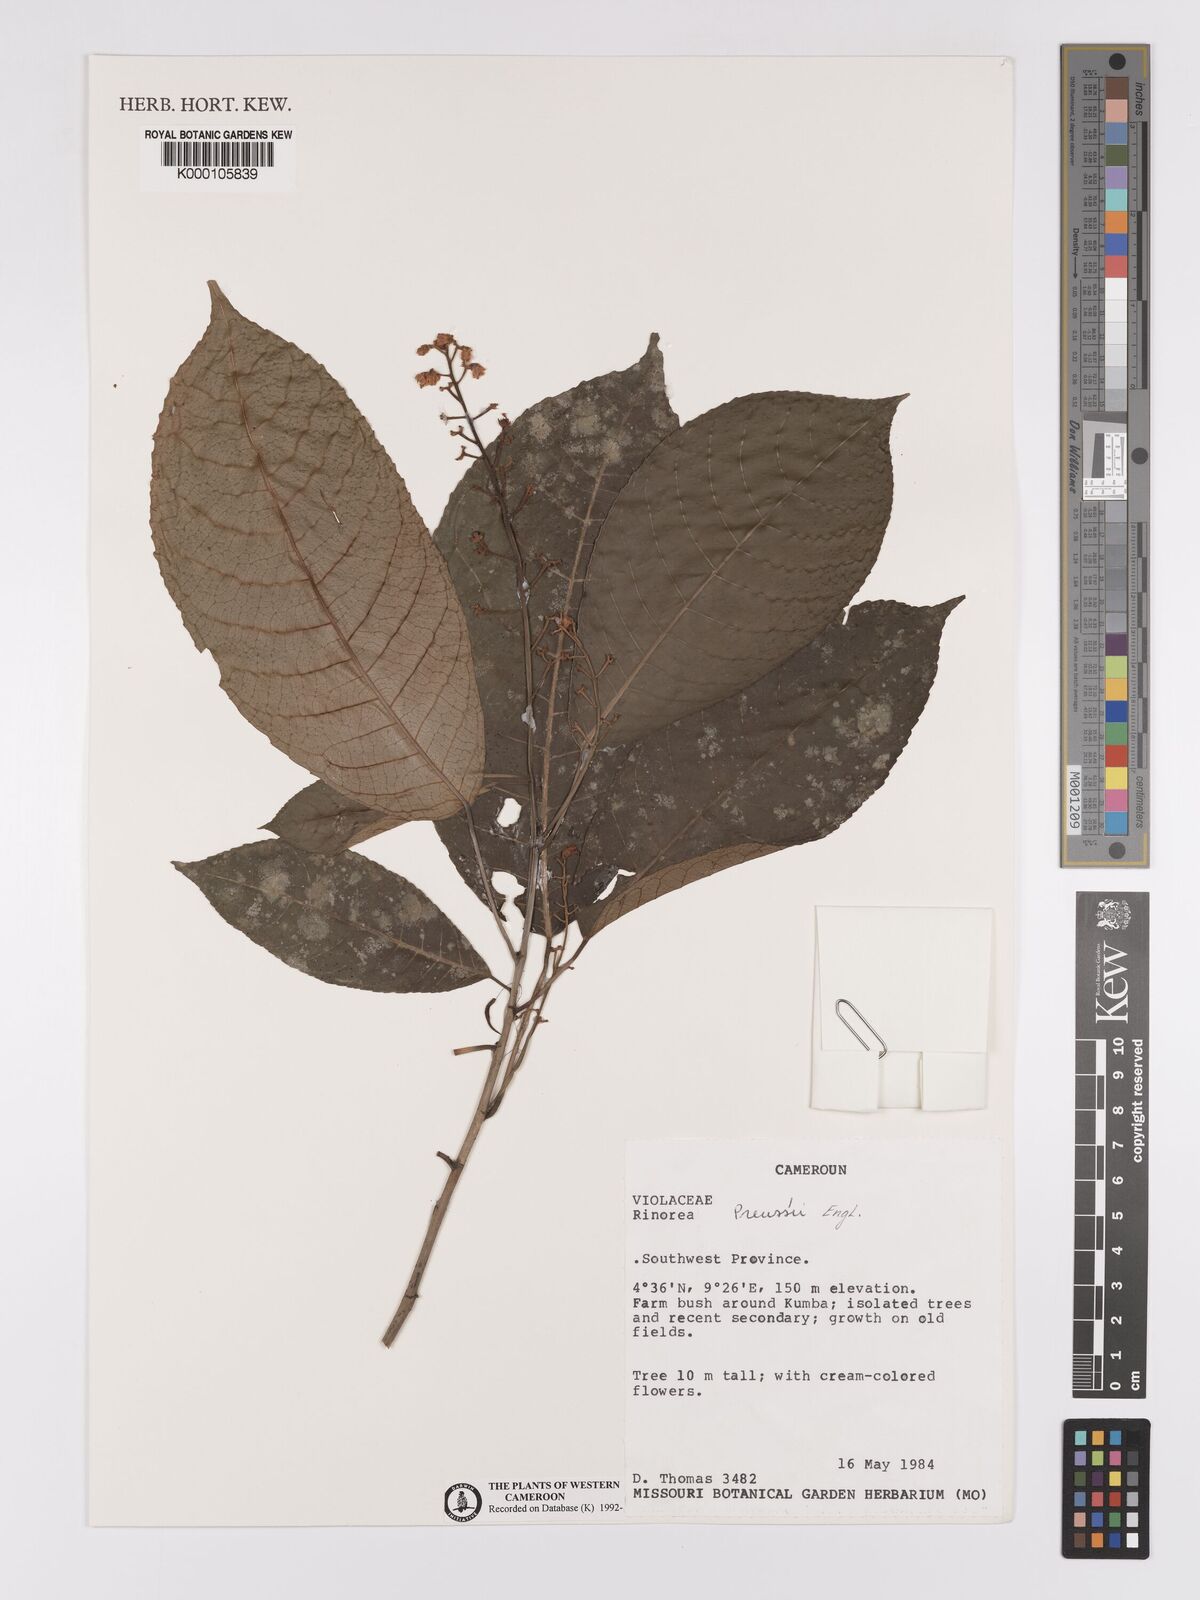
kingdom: Plantae
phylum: Tracheophyta
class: Magnoliopsida
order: Malpighiales
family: Violaceae
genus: Rinorea
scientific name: Rinorea preussii
